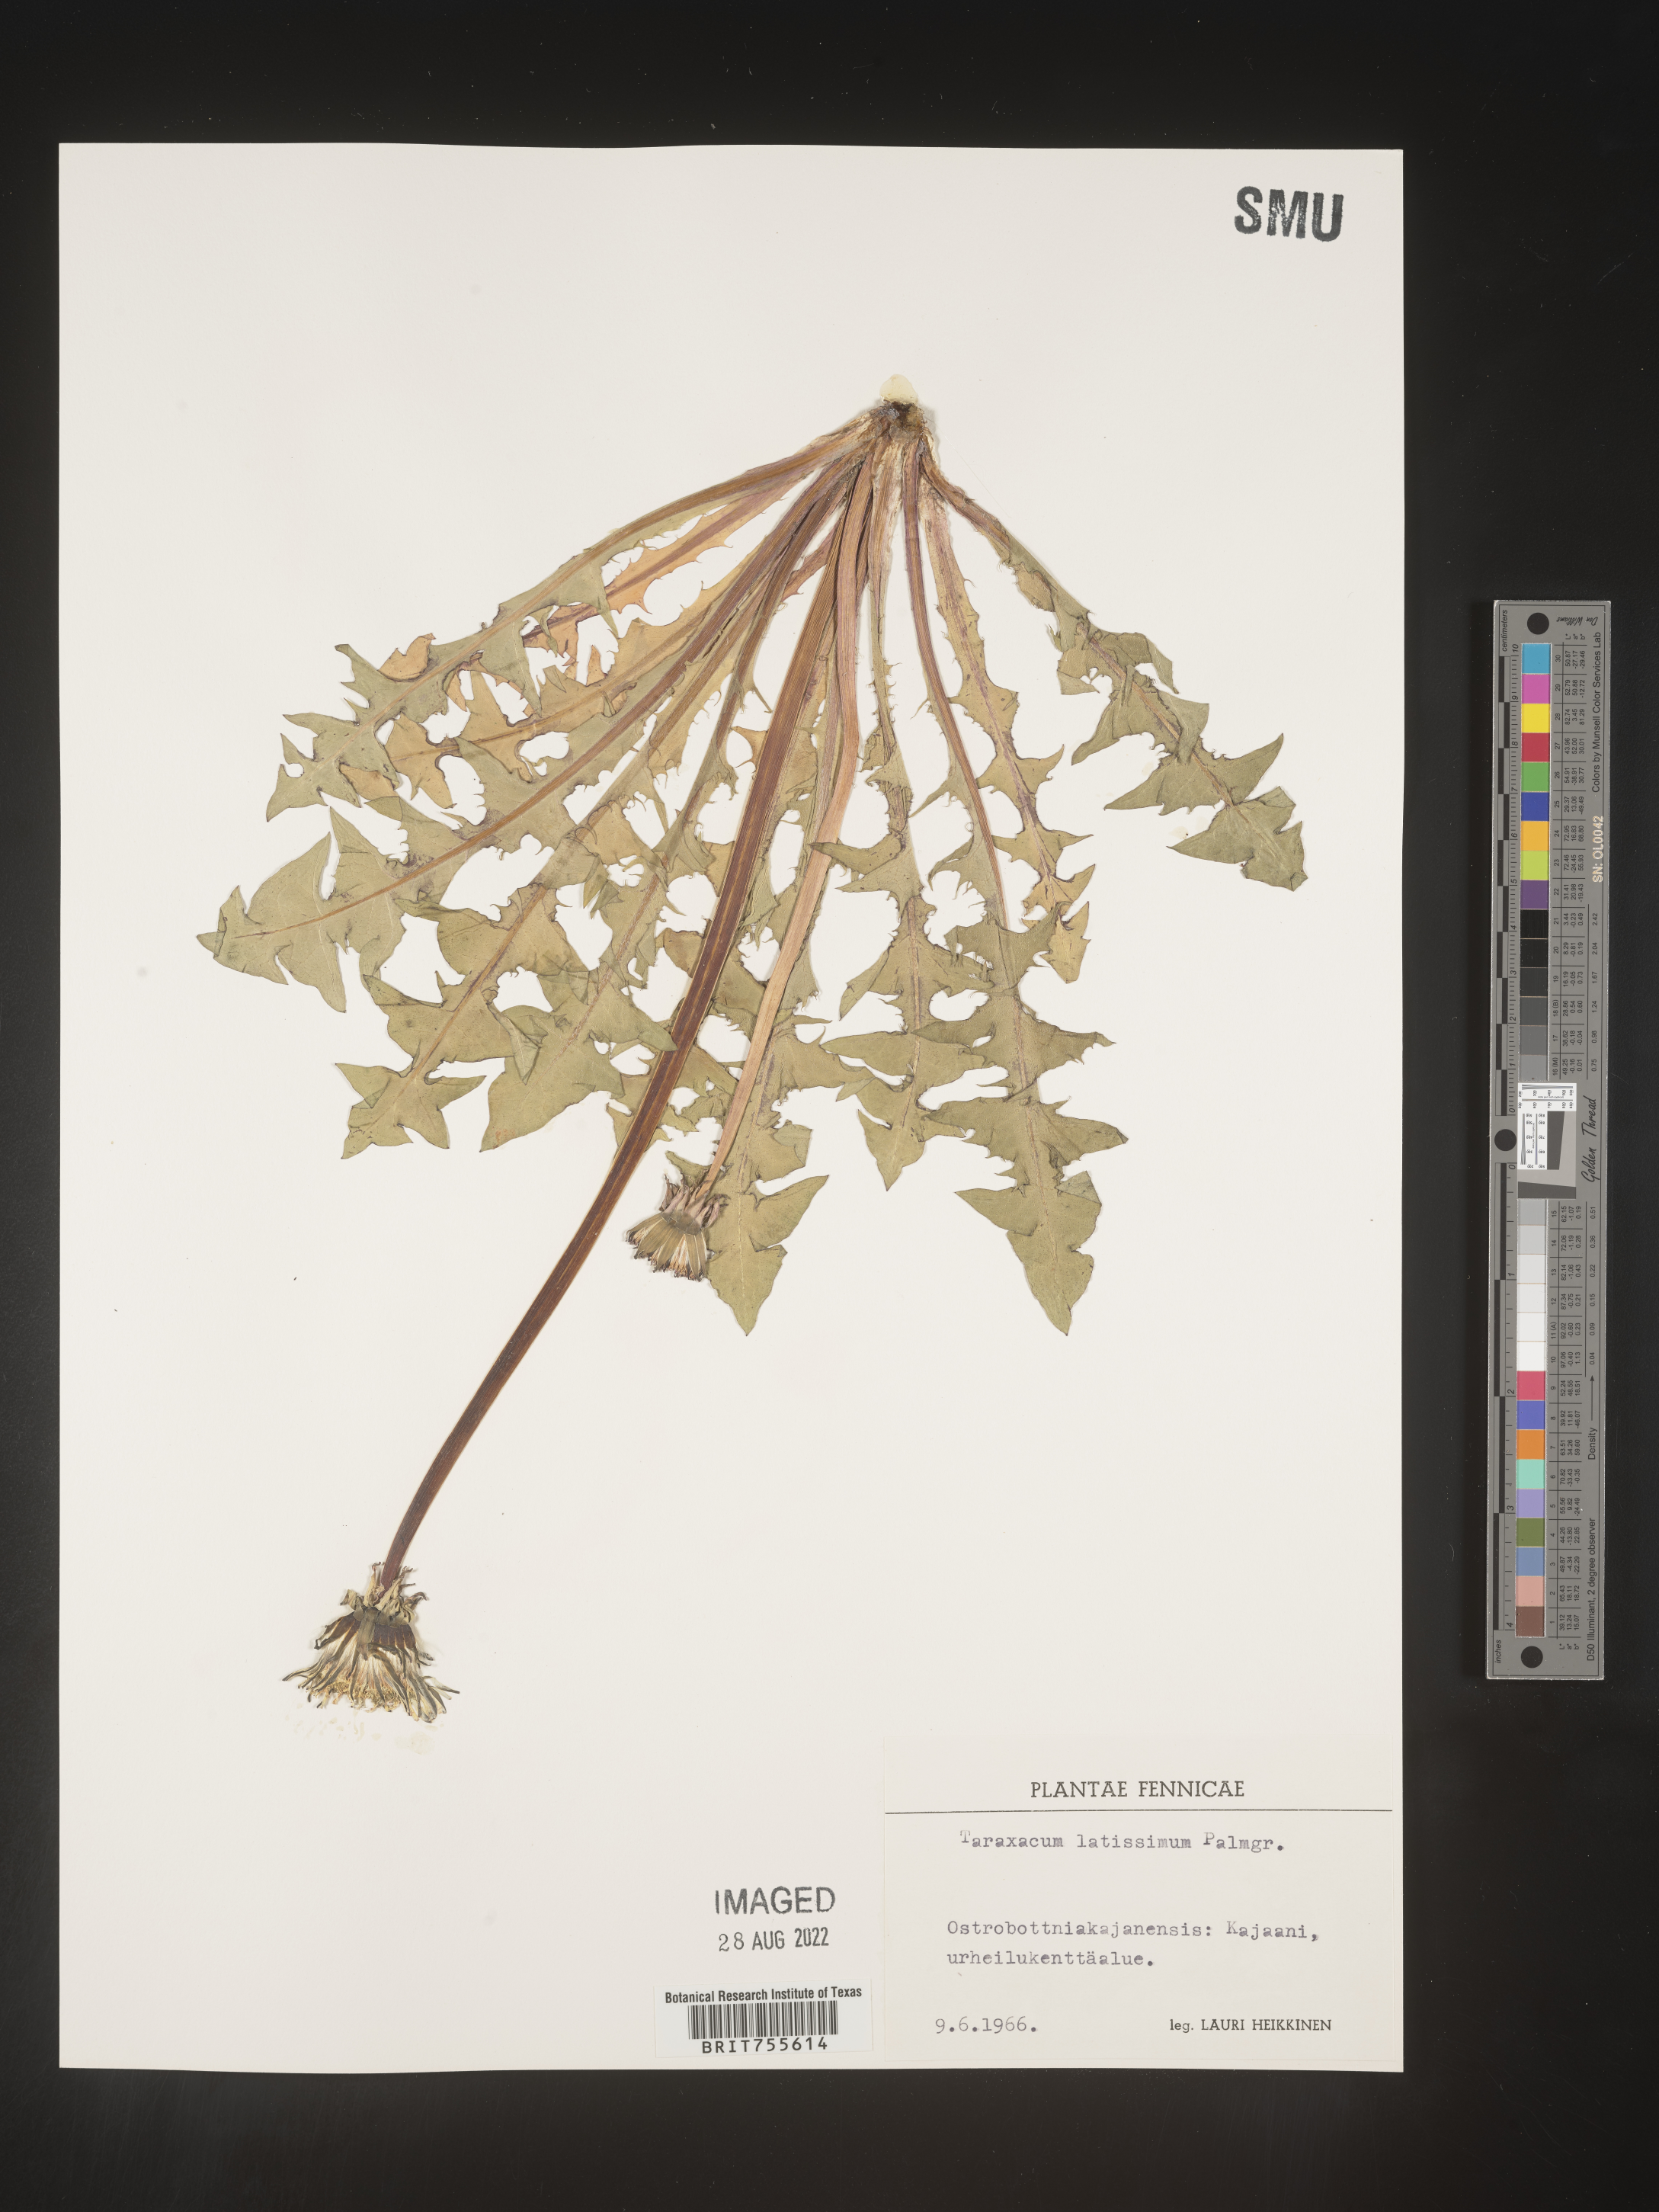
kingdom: Plantae
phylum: Tracheophyta
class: Magnoliopsida
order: Asterales
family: Asteraceae
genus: Taraxacum
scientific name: Taraxacum
